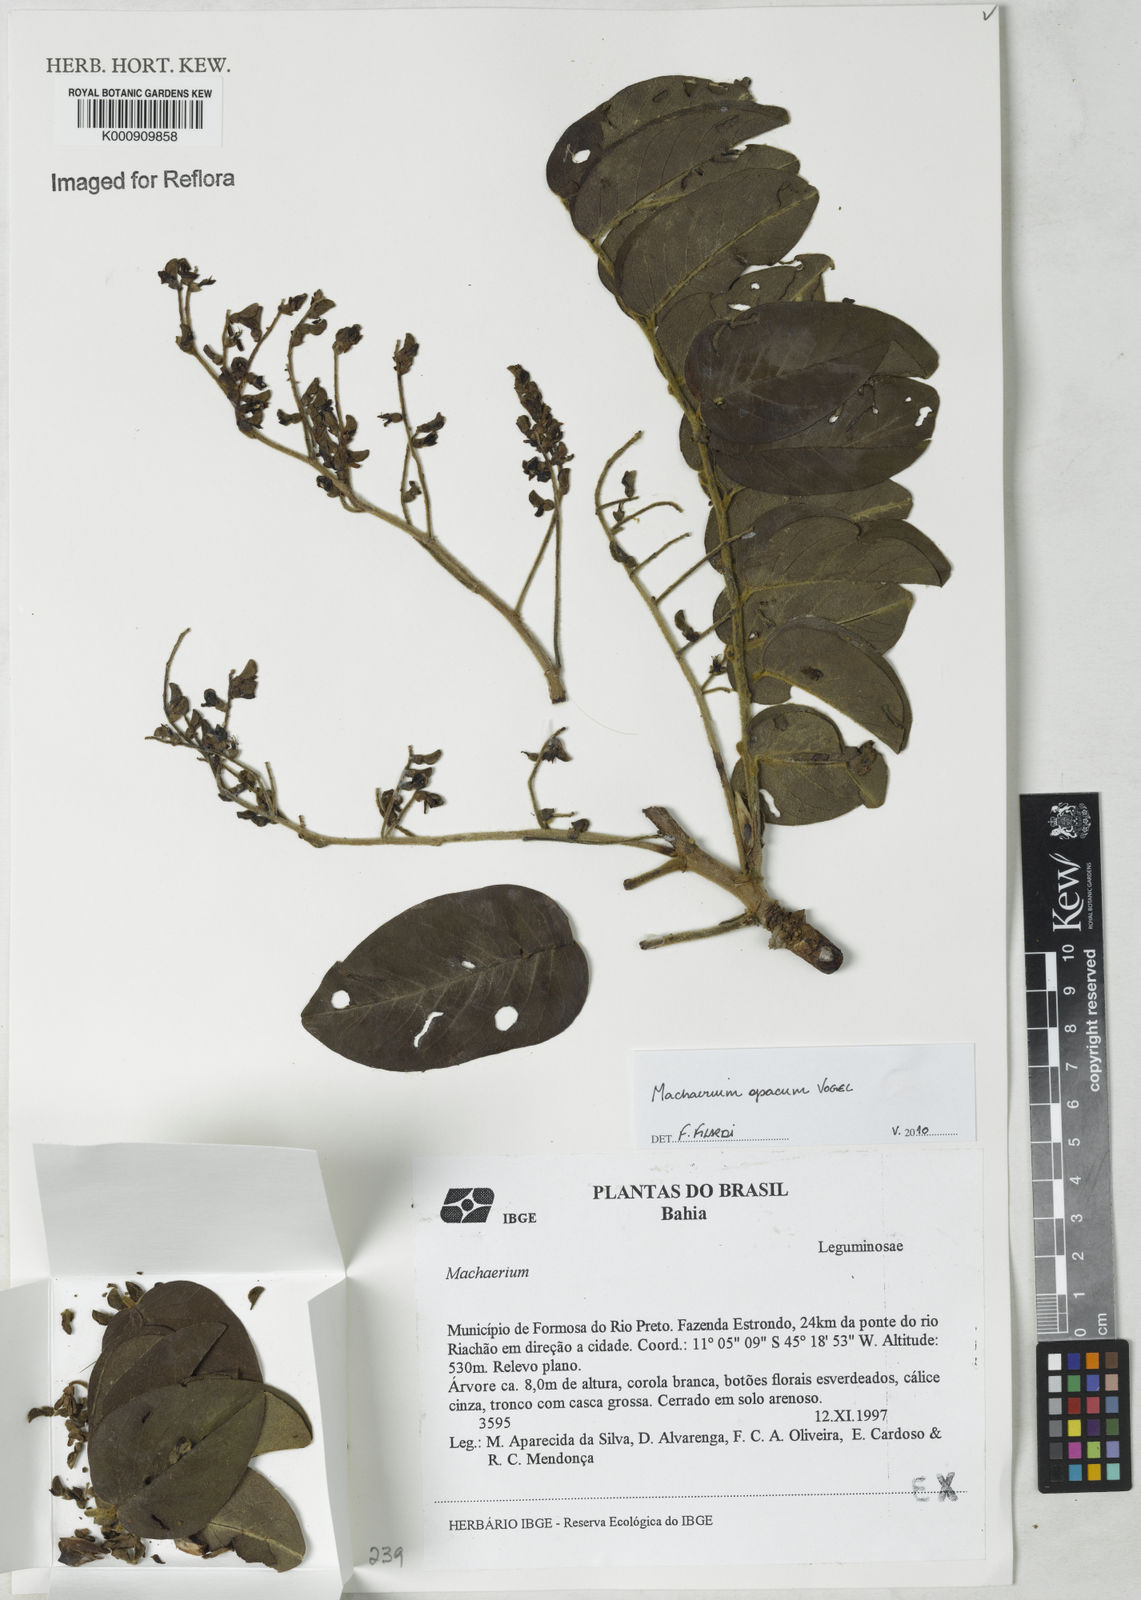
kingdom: Plantae
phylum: Tracheophyta
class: Magnoliopsida
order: Fabales
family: Fabaceae
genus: Machaerium
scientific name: Machaerium opacum
